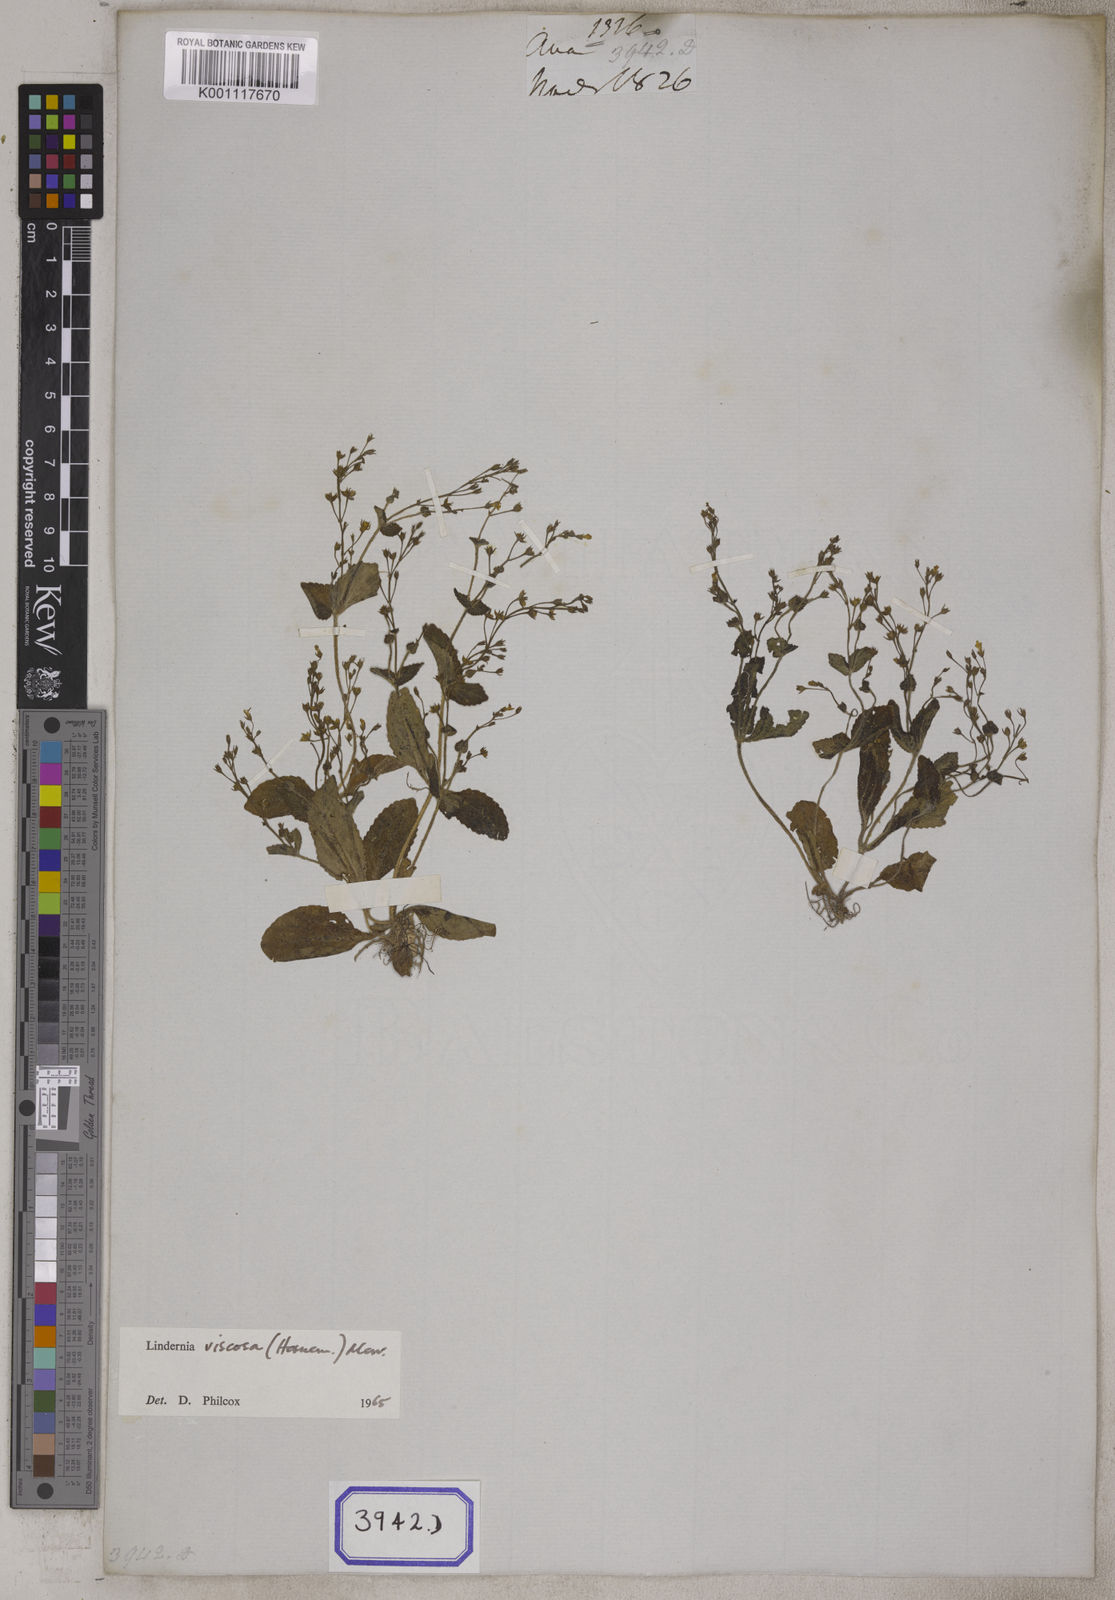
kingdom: Plantae
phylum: Tracheophyta
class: Magnoliopsida
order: Lamiales
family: Linderniaceae
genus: Yamazakia
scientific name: Yamazakia viscosa
